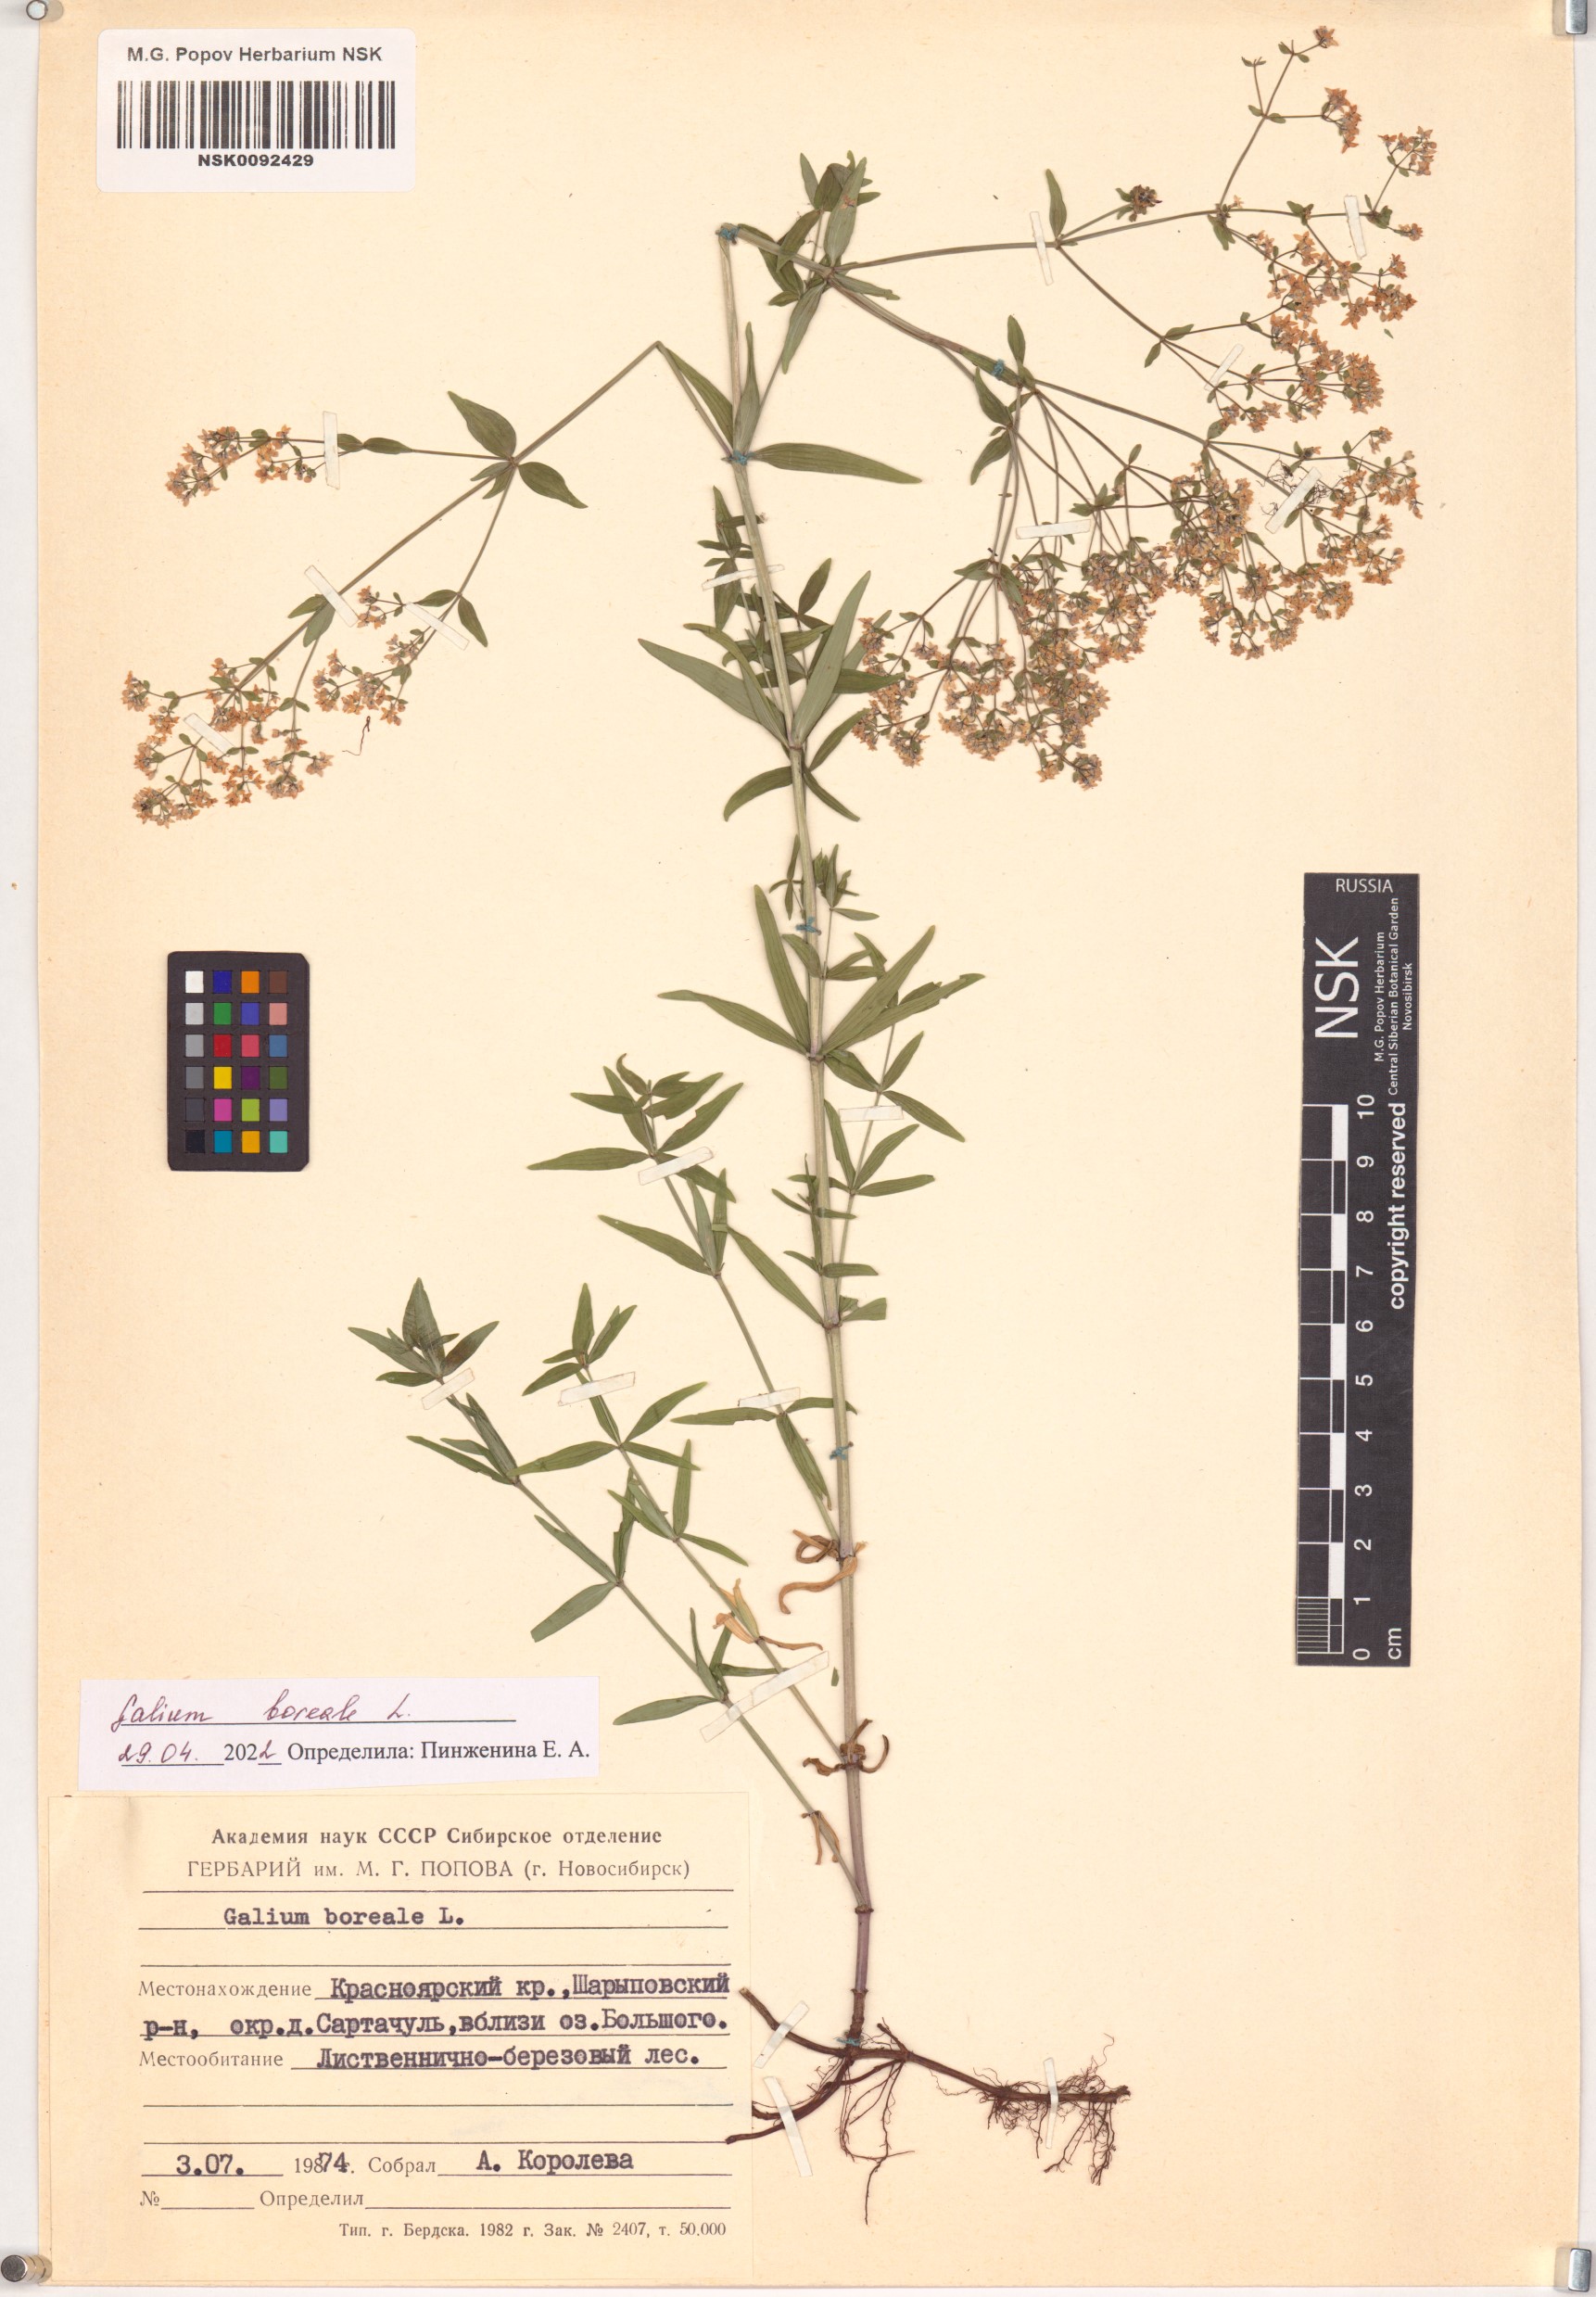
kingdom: Plantae
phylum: Tracheophyta
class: Magnoliopsida
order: Gentianales
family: Rubiaceae
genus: Galium
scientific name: Galium boreale
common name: Northern bedstraw
